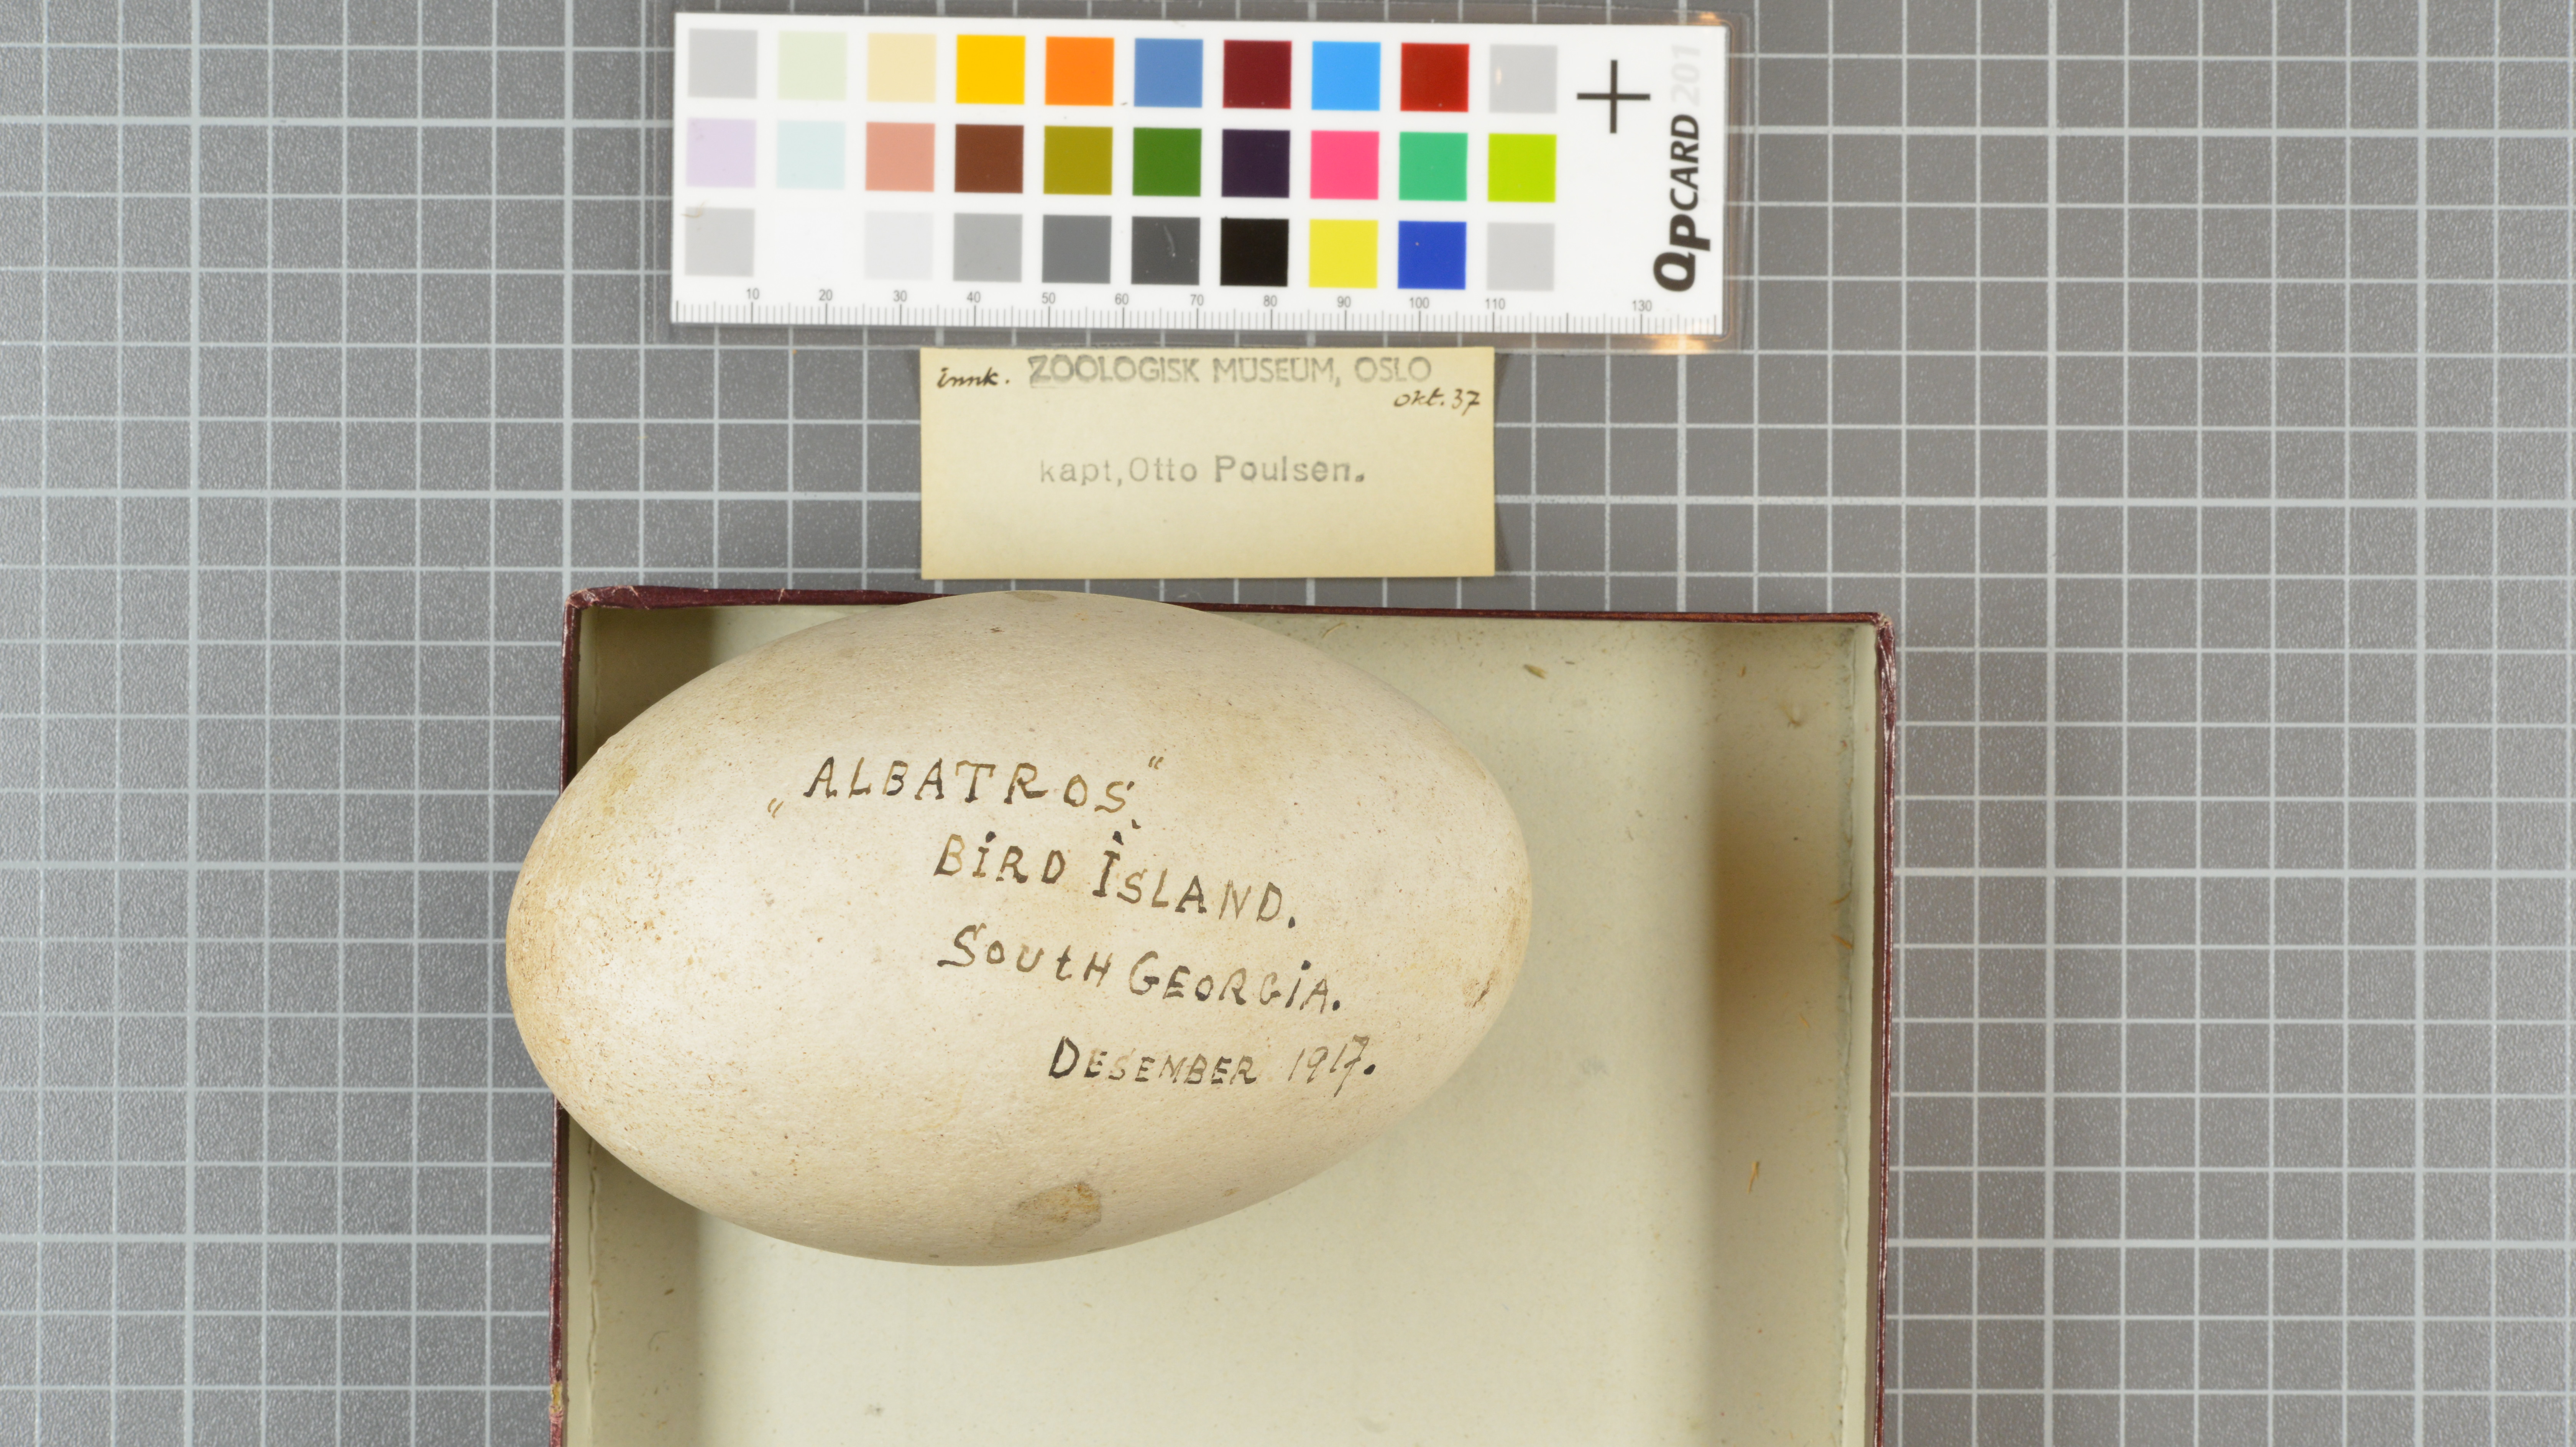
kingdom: Animalia
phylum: Chordata
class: Aves
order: Procellariiformes
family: Diomedeidae
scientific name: Diomedeidae
